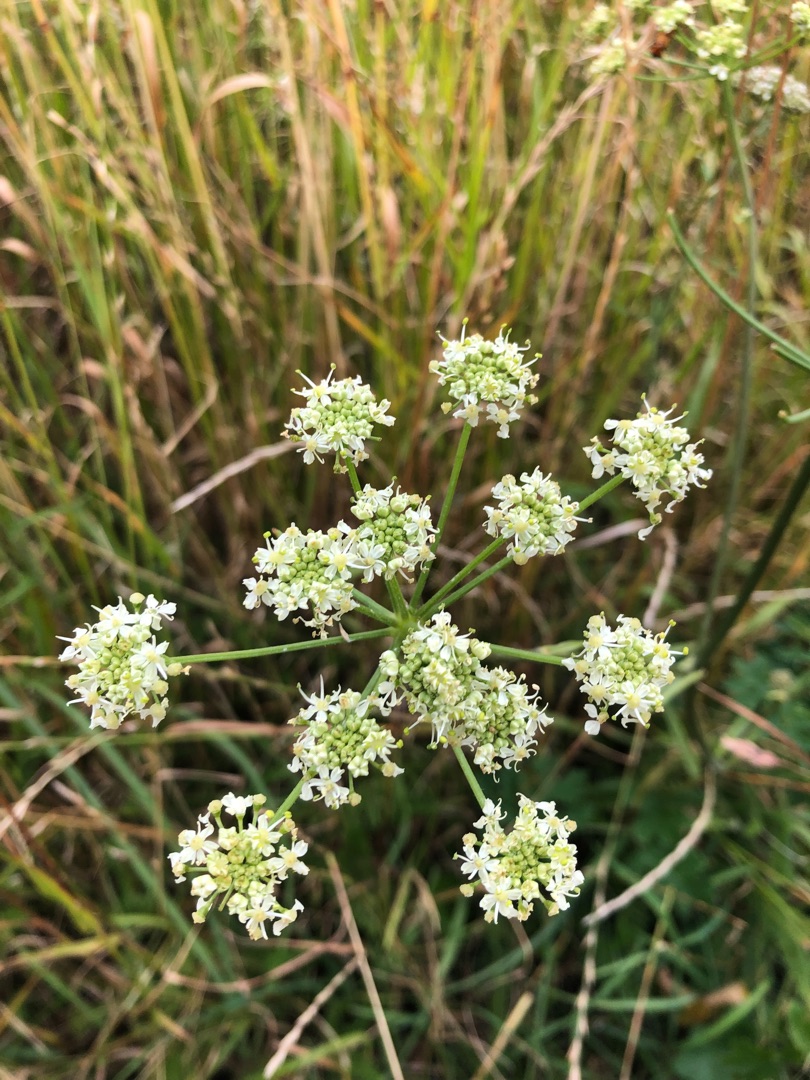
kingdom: Plantae
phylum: Tracheophyta
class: Magnoliopsida
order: Apiales
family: Apiaceae
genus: Heracleum
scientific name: Heracleum sphondylium
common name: Almindelig bjørneklo
